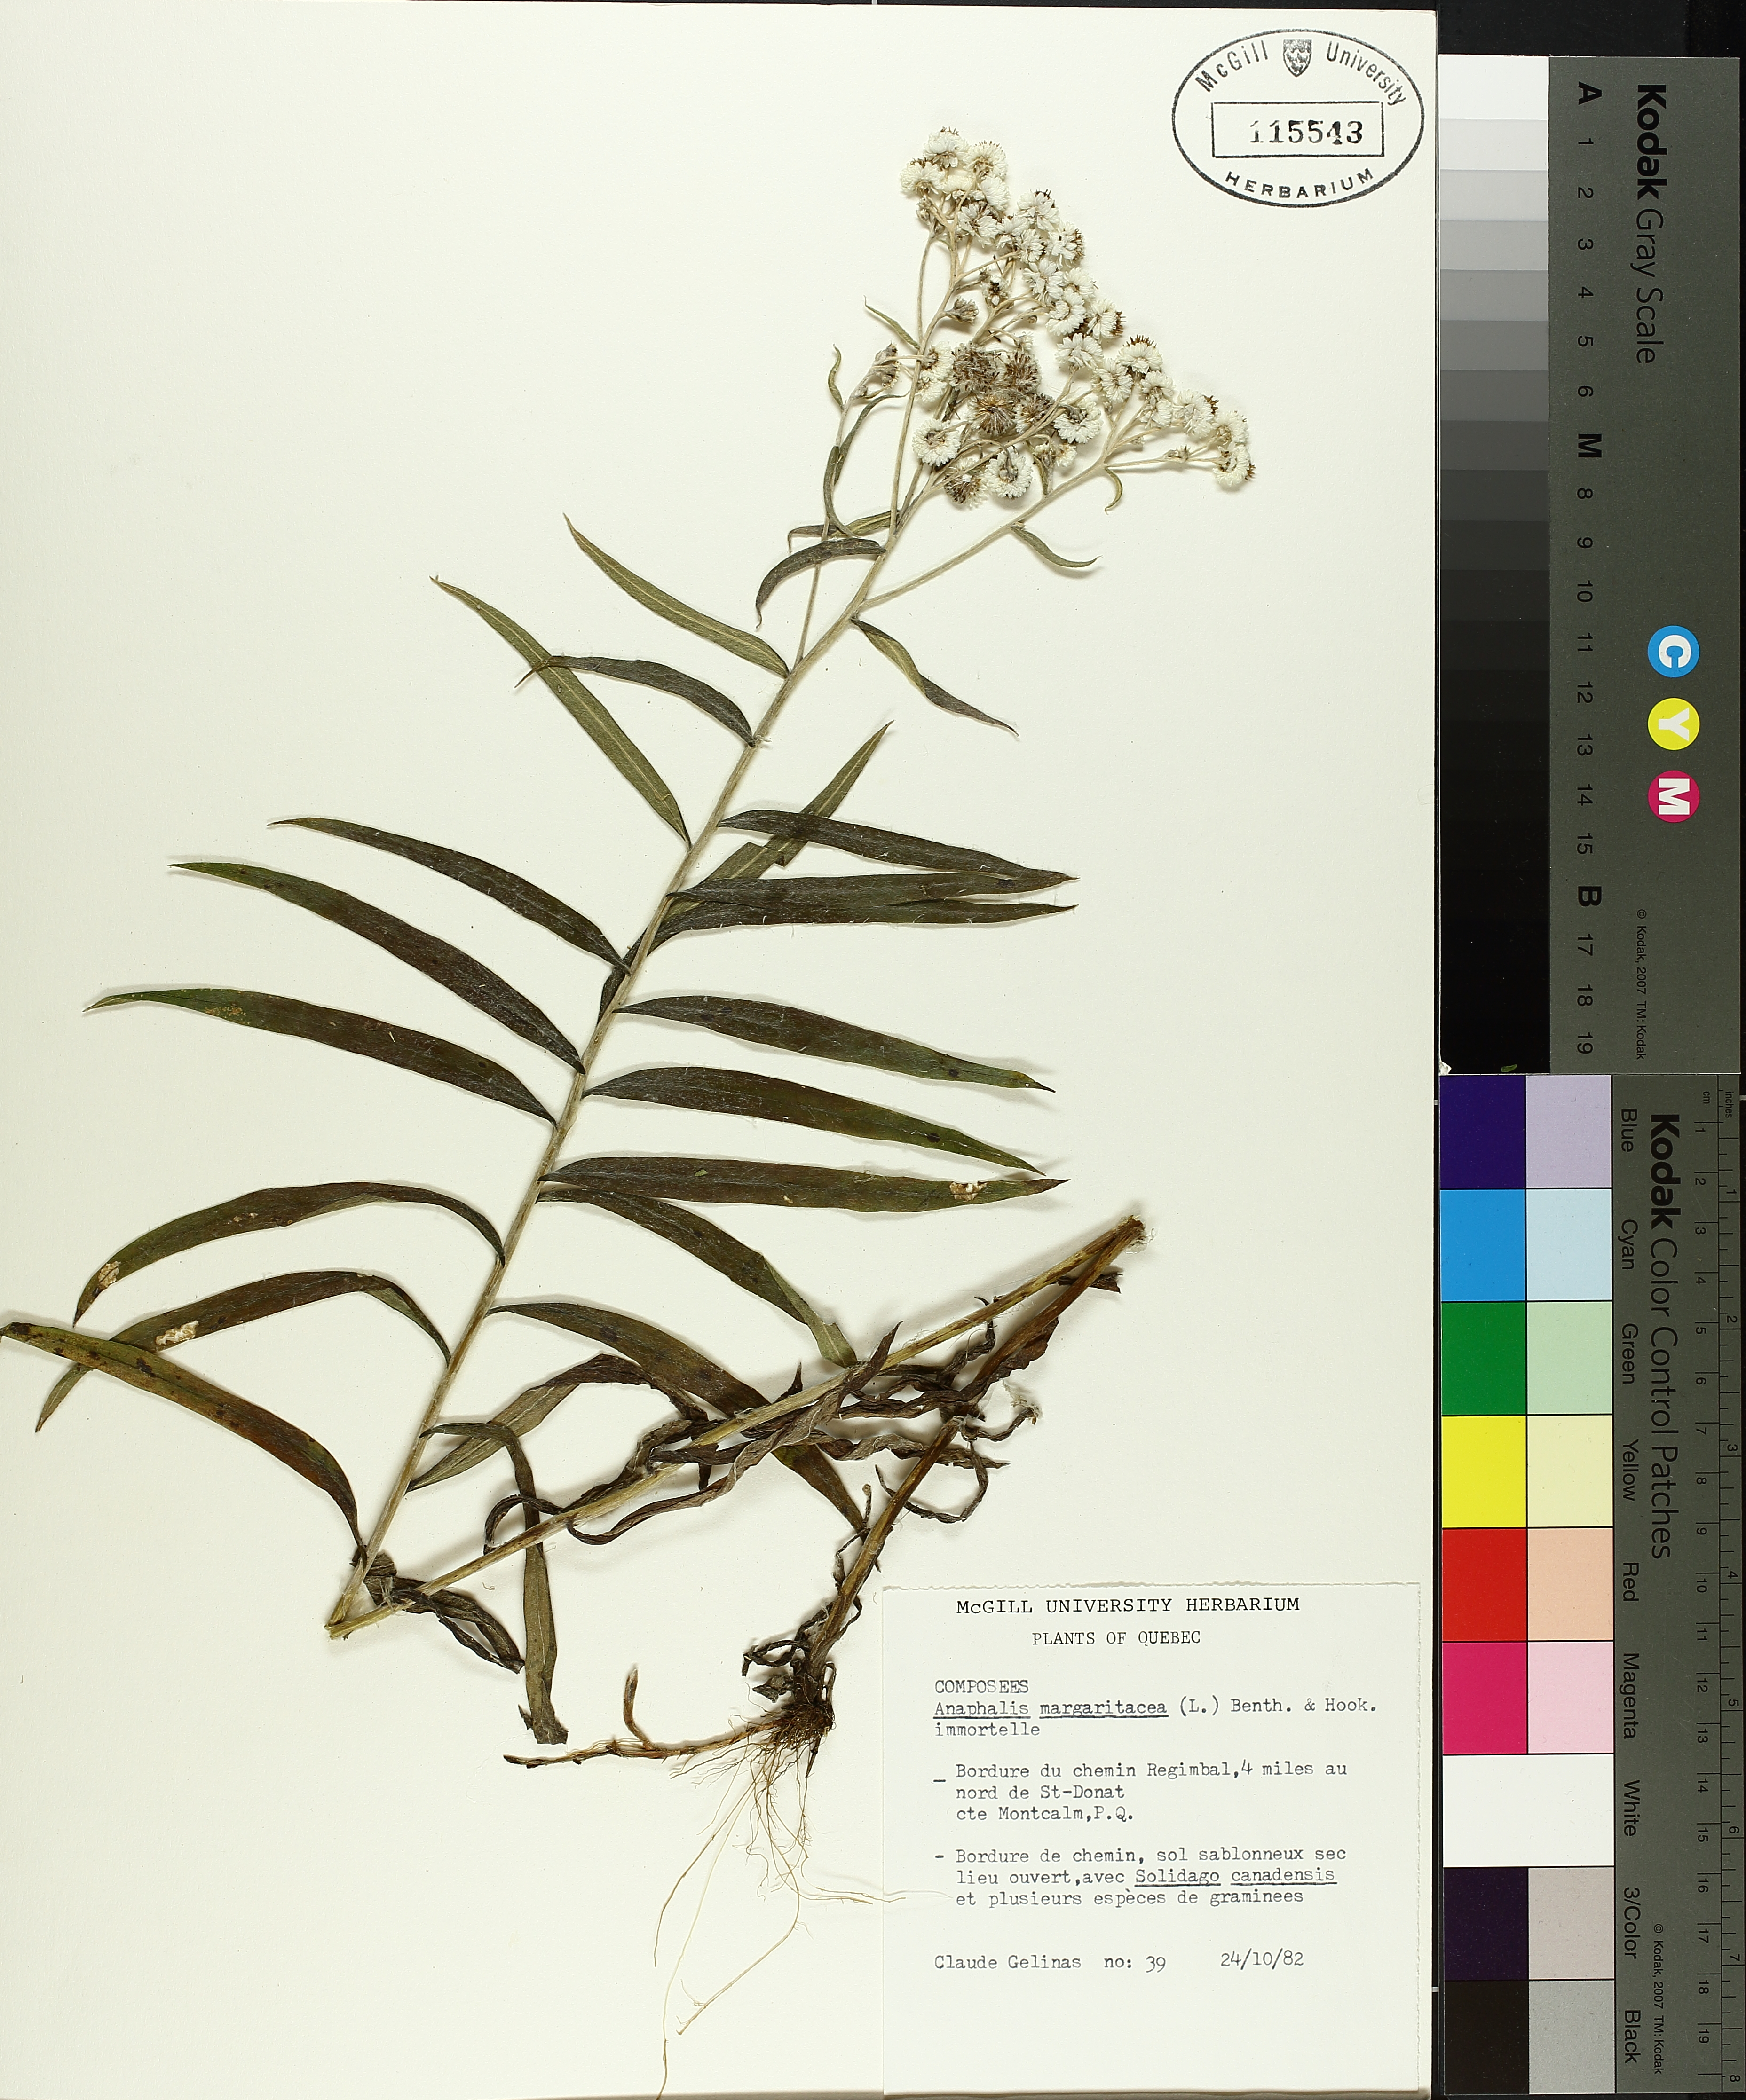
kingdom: Plantae
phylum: Tracheophyta
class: Liliopsida
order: Poales
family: Cyperaceae
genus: Carex
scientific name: Carex stipata
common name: Awl-fruited sedge
